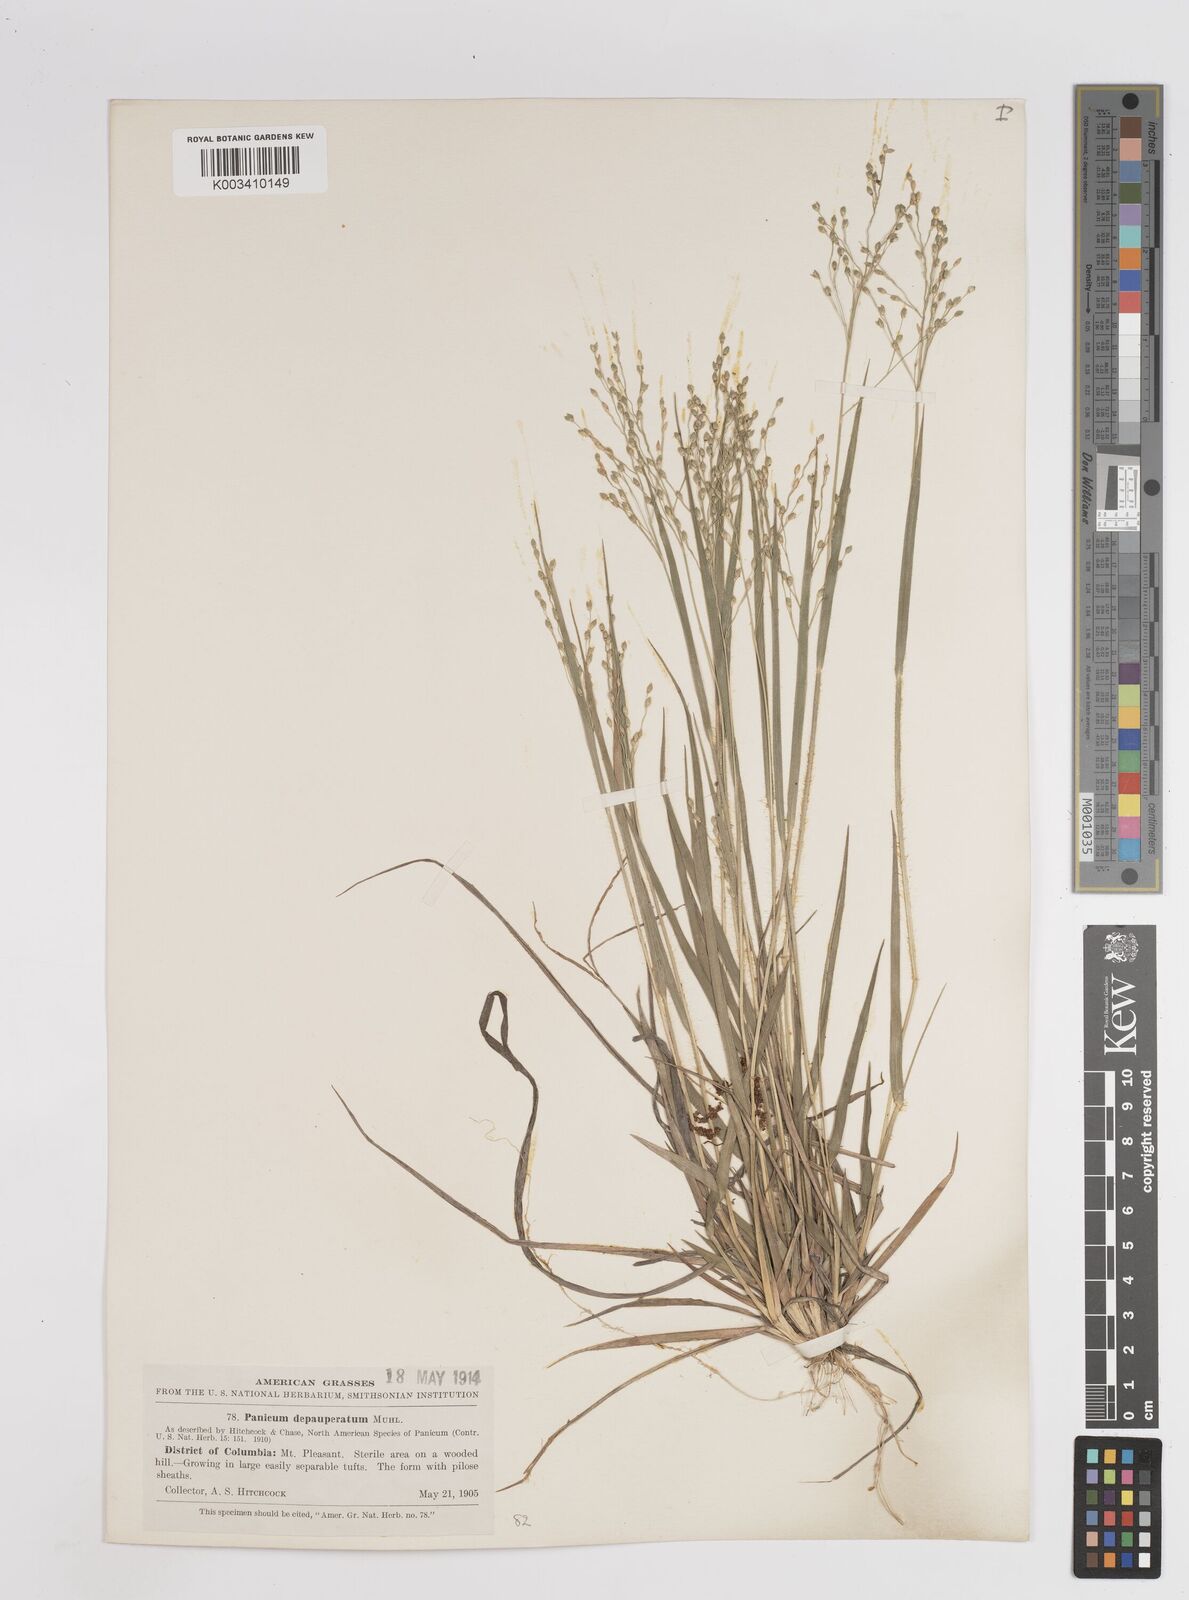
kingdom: Plantae
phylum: Tracheophyta
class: Liliopsida
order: Poales
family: Poaceae
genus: Dichanthelium
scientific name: Dichanthelium depauperatum
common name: Depauperate panicgrass
